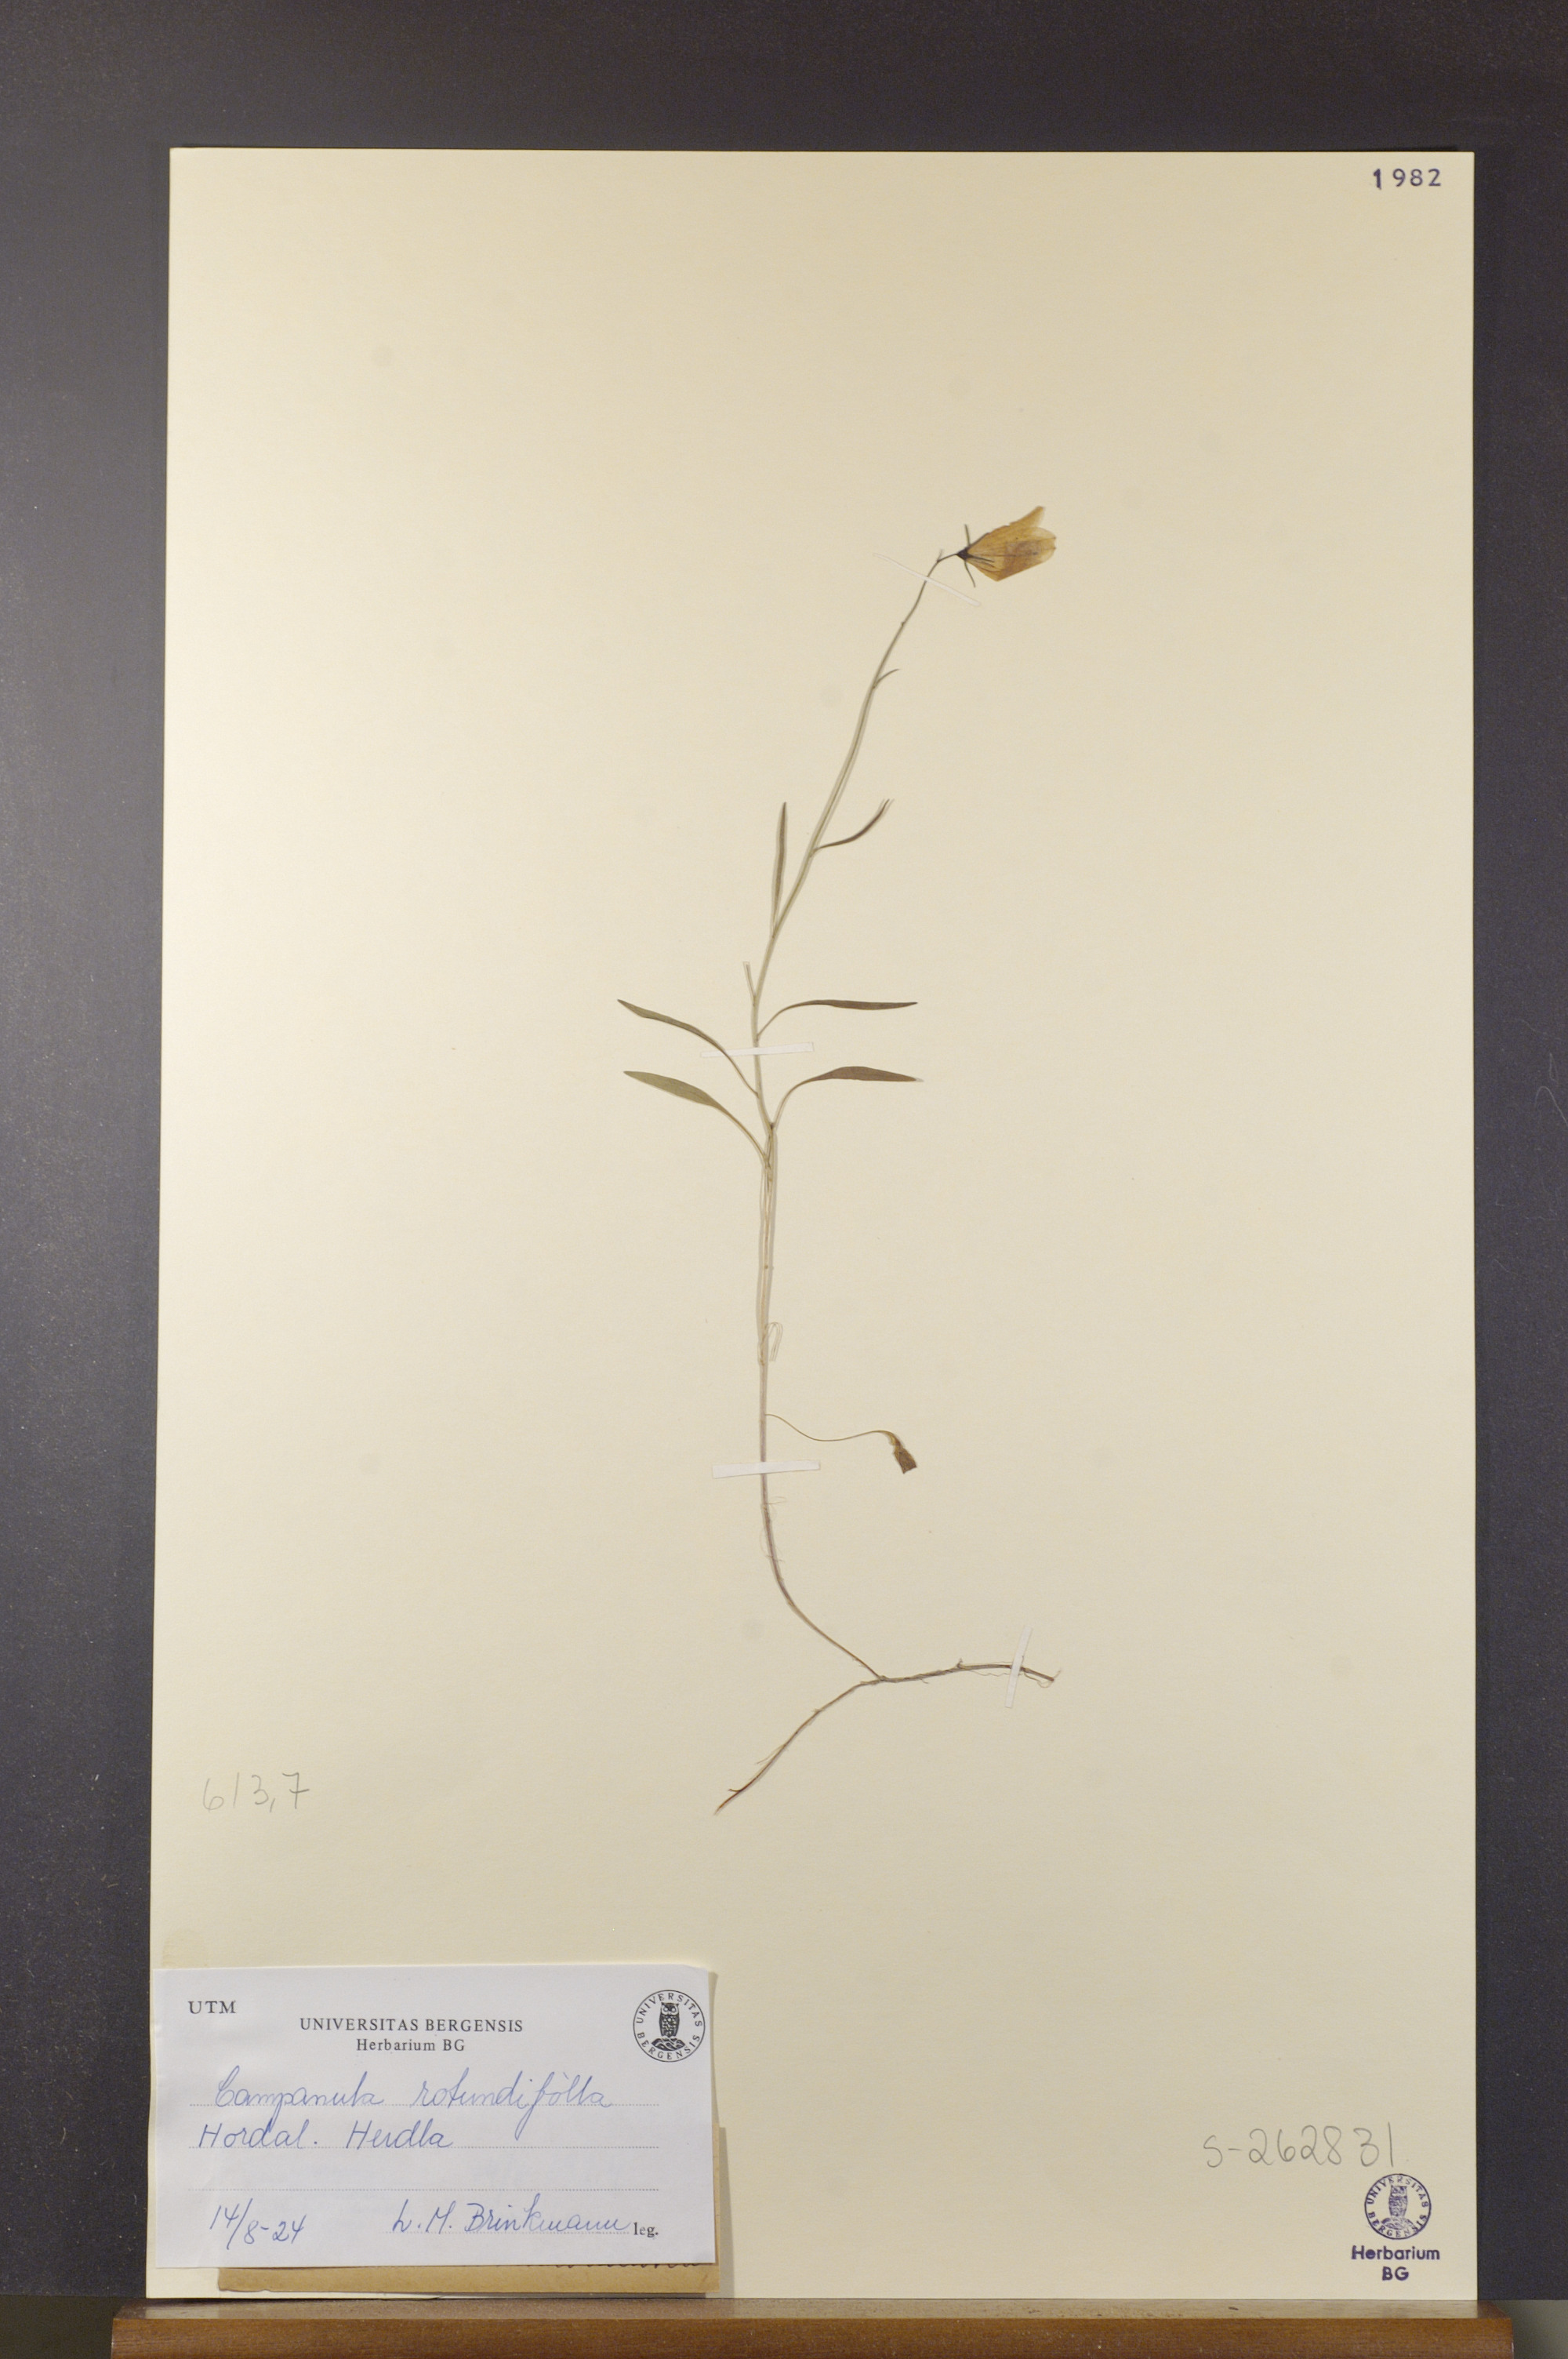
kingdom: Plantae
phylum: Tracheophyta
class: Magnoliopsida
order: Asterales
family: Campanulaceae
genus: Campanula
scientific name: Campanula rotundifolia
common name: Harebell
